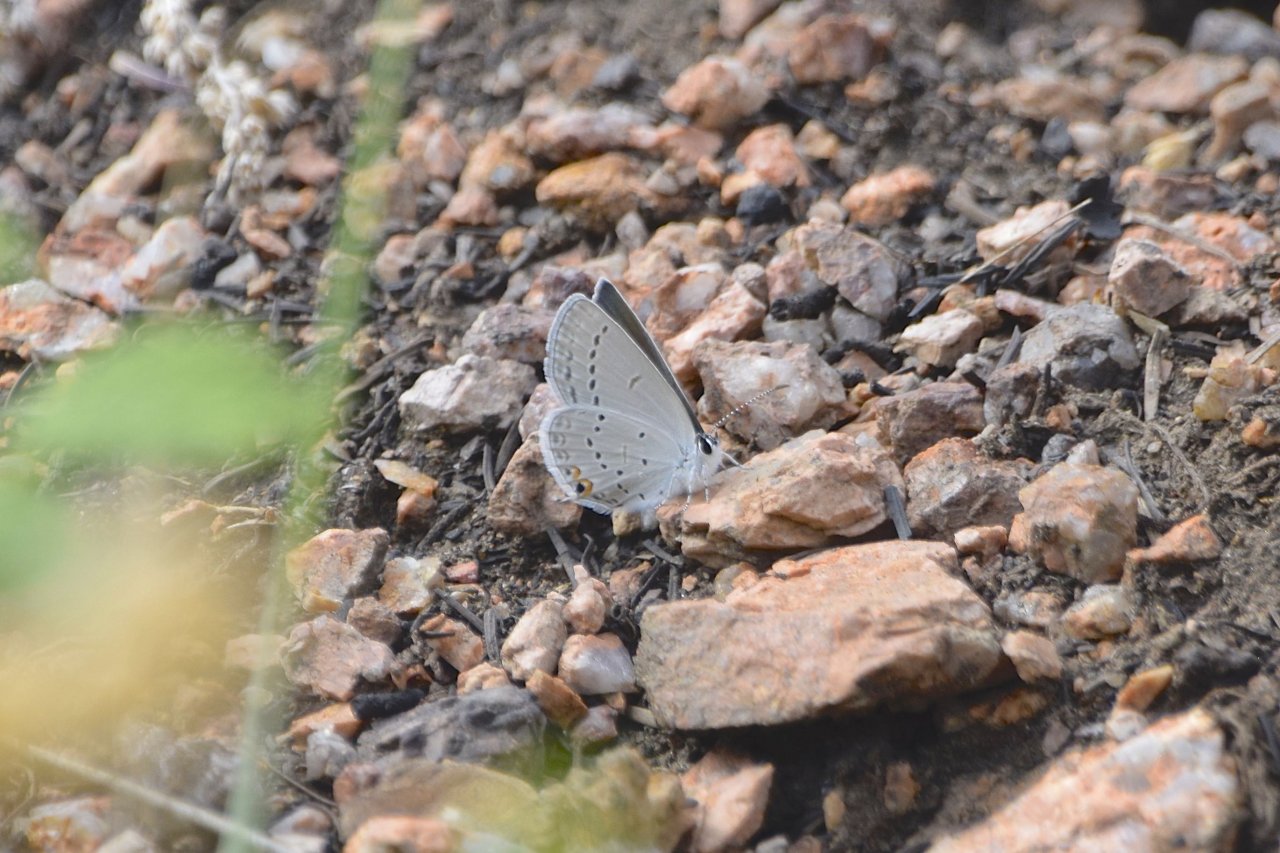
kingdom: Animalia
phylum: Arthropoda
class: Insecta
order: Lepidoptera
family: Lycaenidae
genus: Elkalyce
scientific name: Elkalyce amyntula
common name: Western Tailed-Blue
